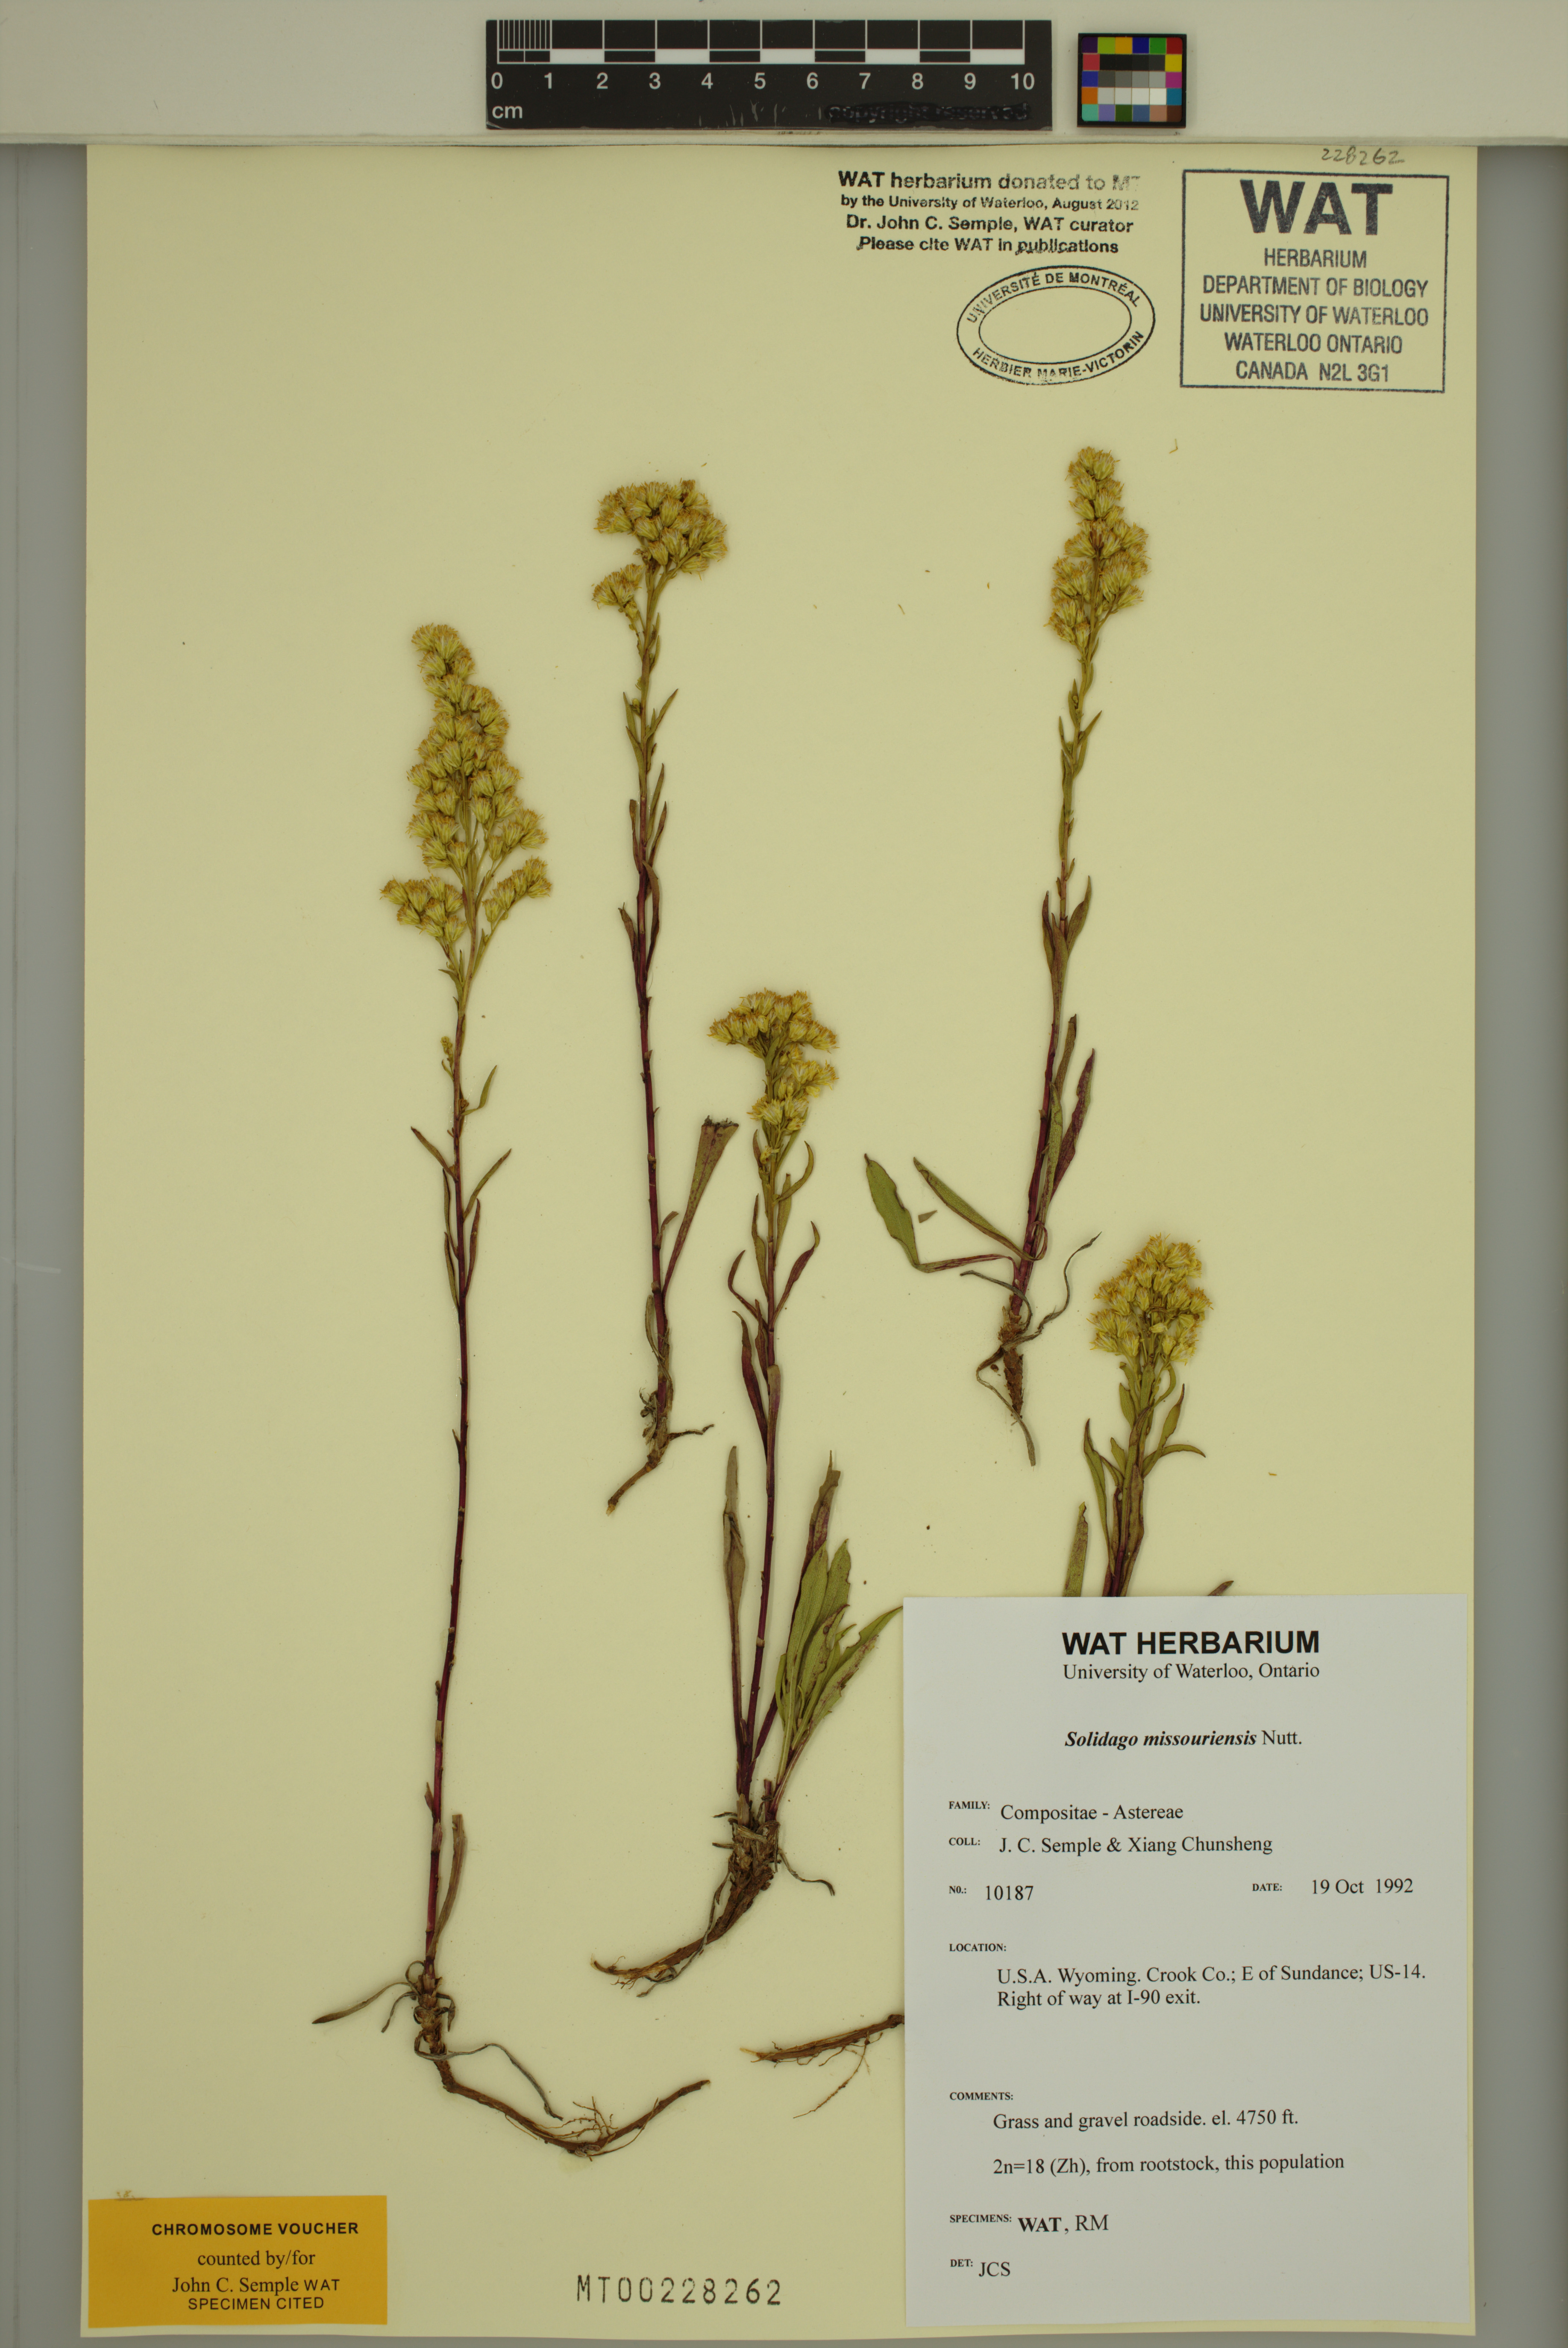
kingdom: Plantae
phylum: Tracheophyta
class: Magnoliopsida
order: Asterales
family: Asteraceae
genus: Solidago
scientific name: Solidago missouriensis
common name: Prairie goldenrod
